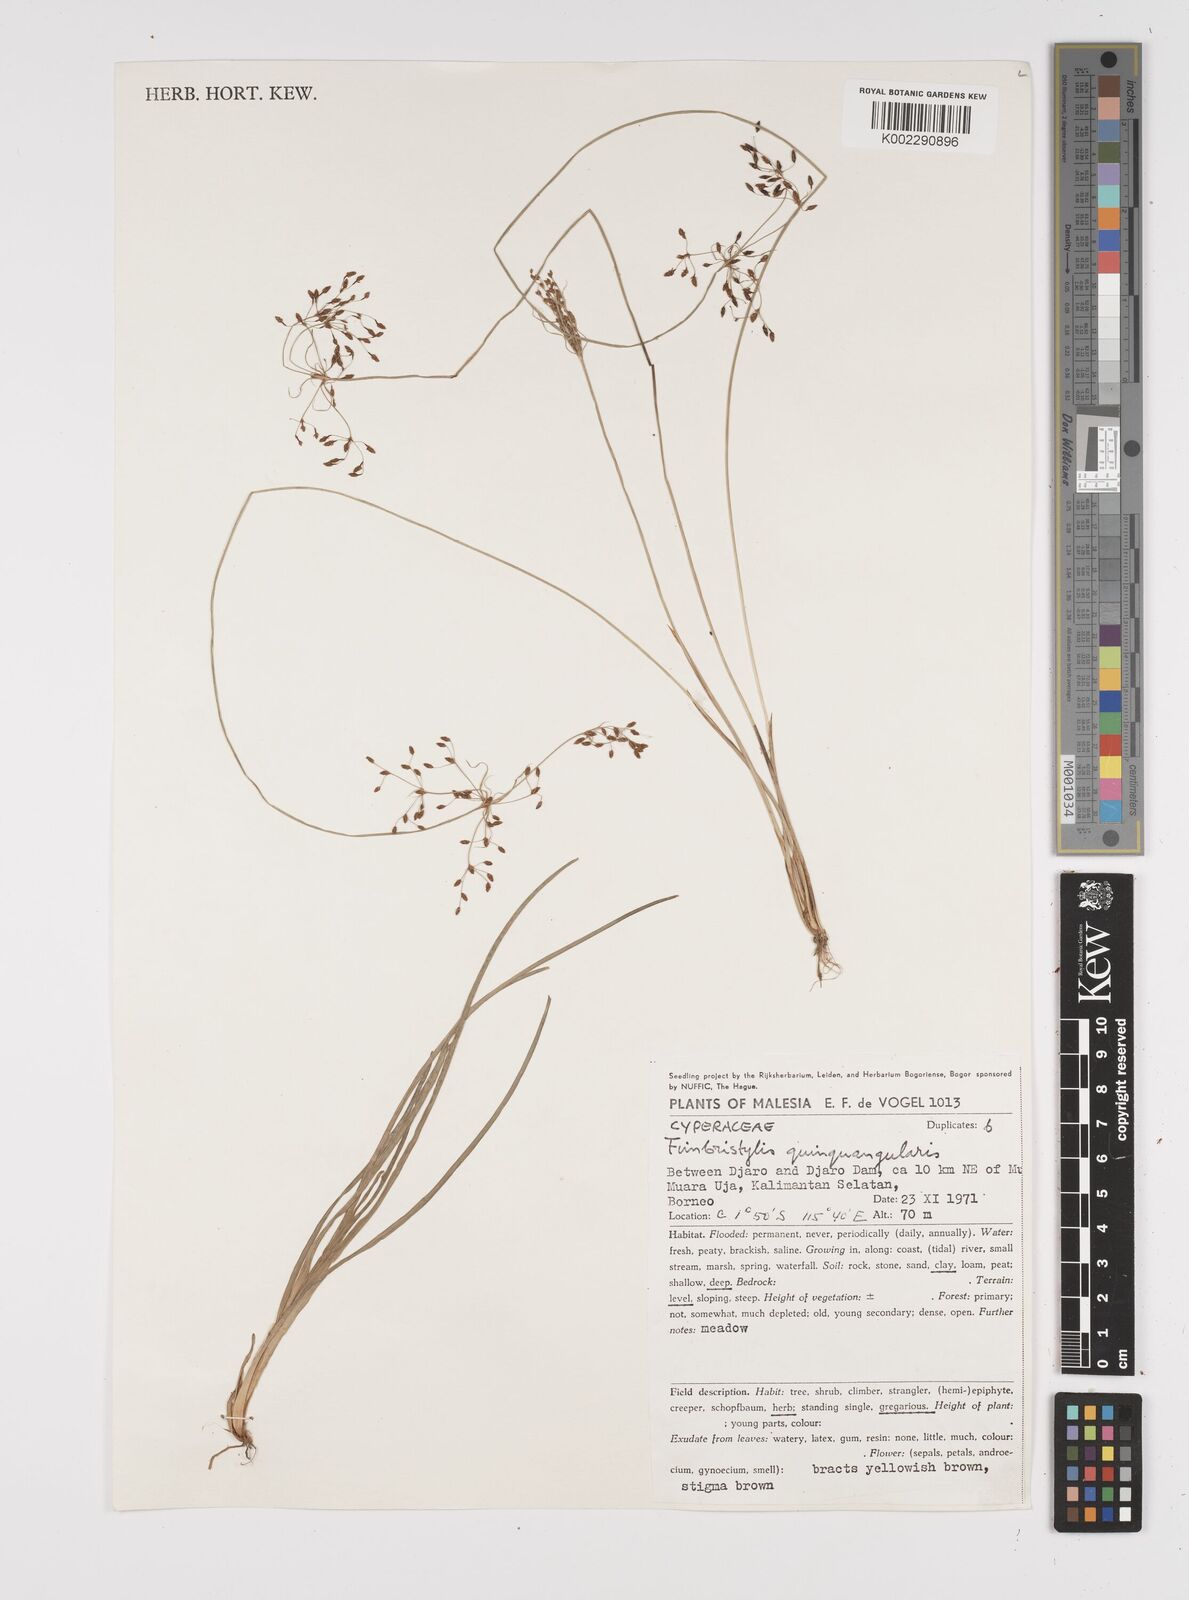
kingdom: Plantae
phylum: Tracheophyta
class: Liliopsida
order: Poales
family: Cyperaceae
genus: Fimbristylis
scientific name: Fimbristylis quinquangularis
